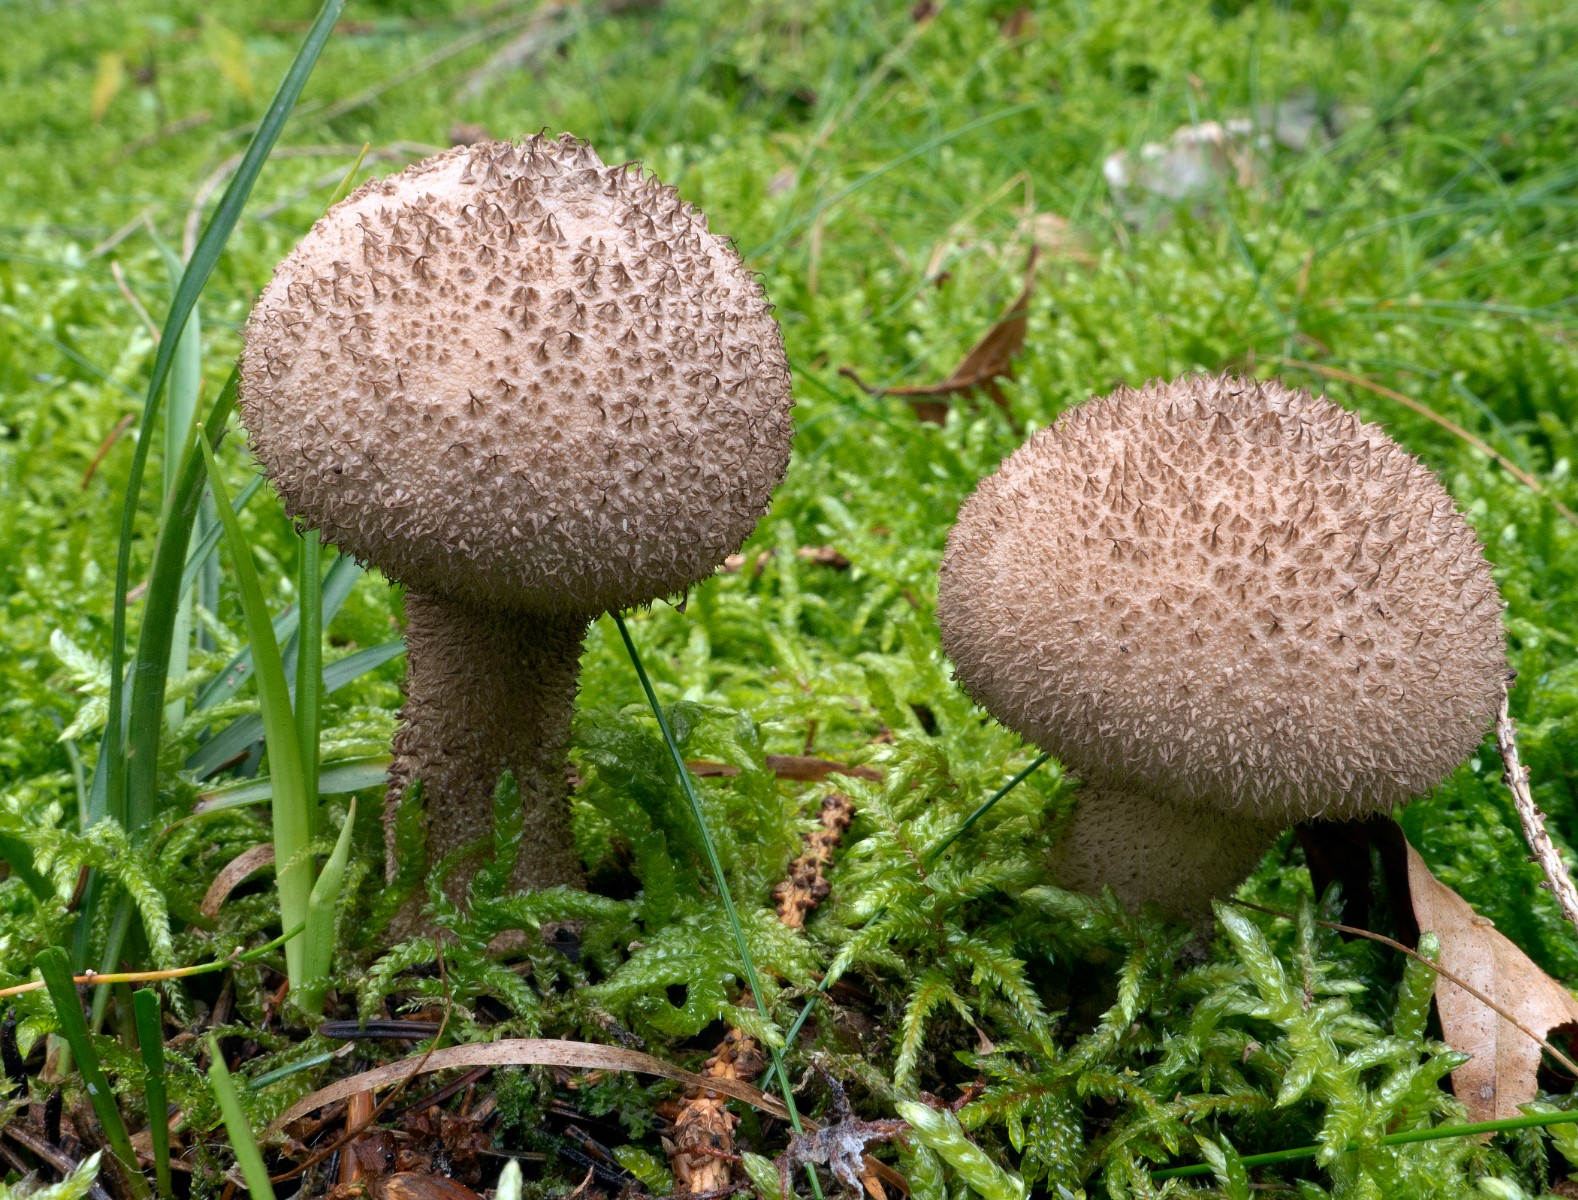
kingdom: Fungi
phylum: Basidiomycota
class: Agaricomycetes
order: Agaricales
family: Lycoperdaceae
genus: Lycoperdon
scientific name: Lycoperdon nigrescens
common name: sortagtig støvbold
